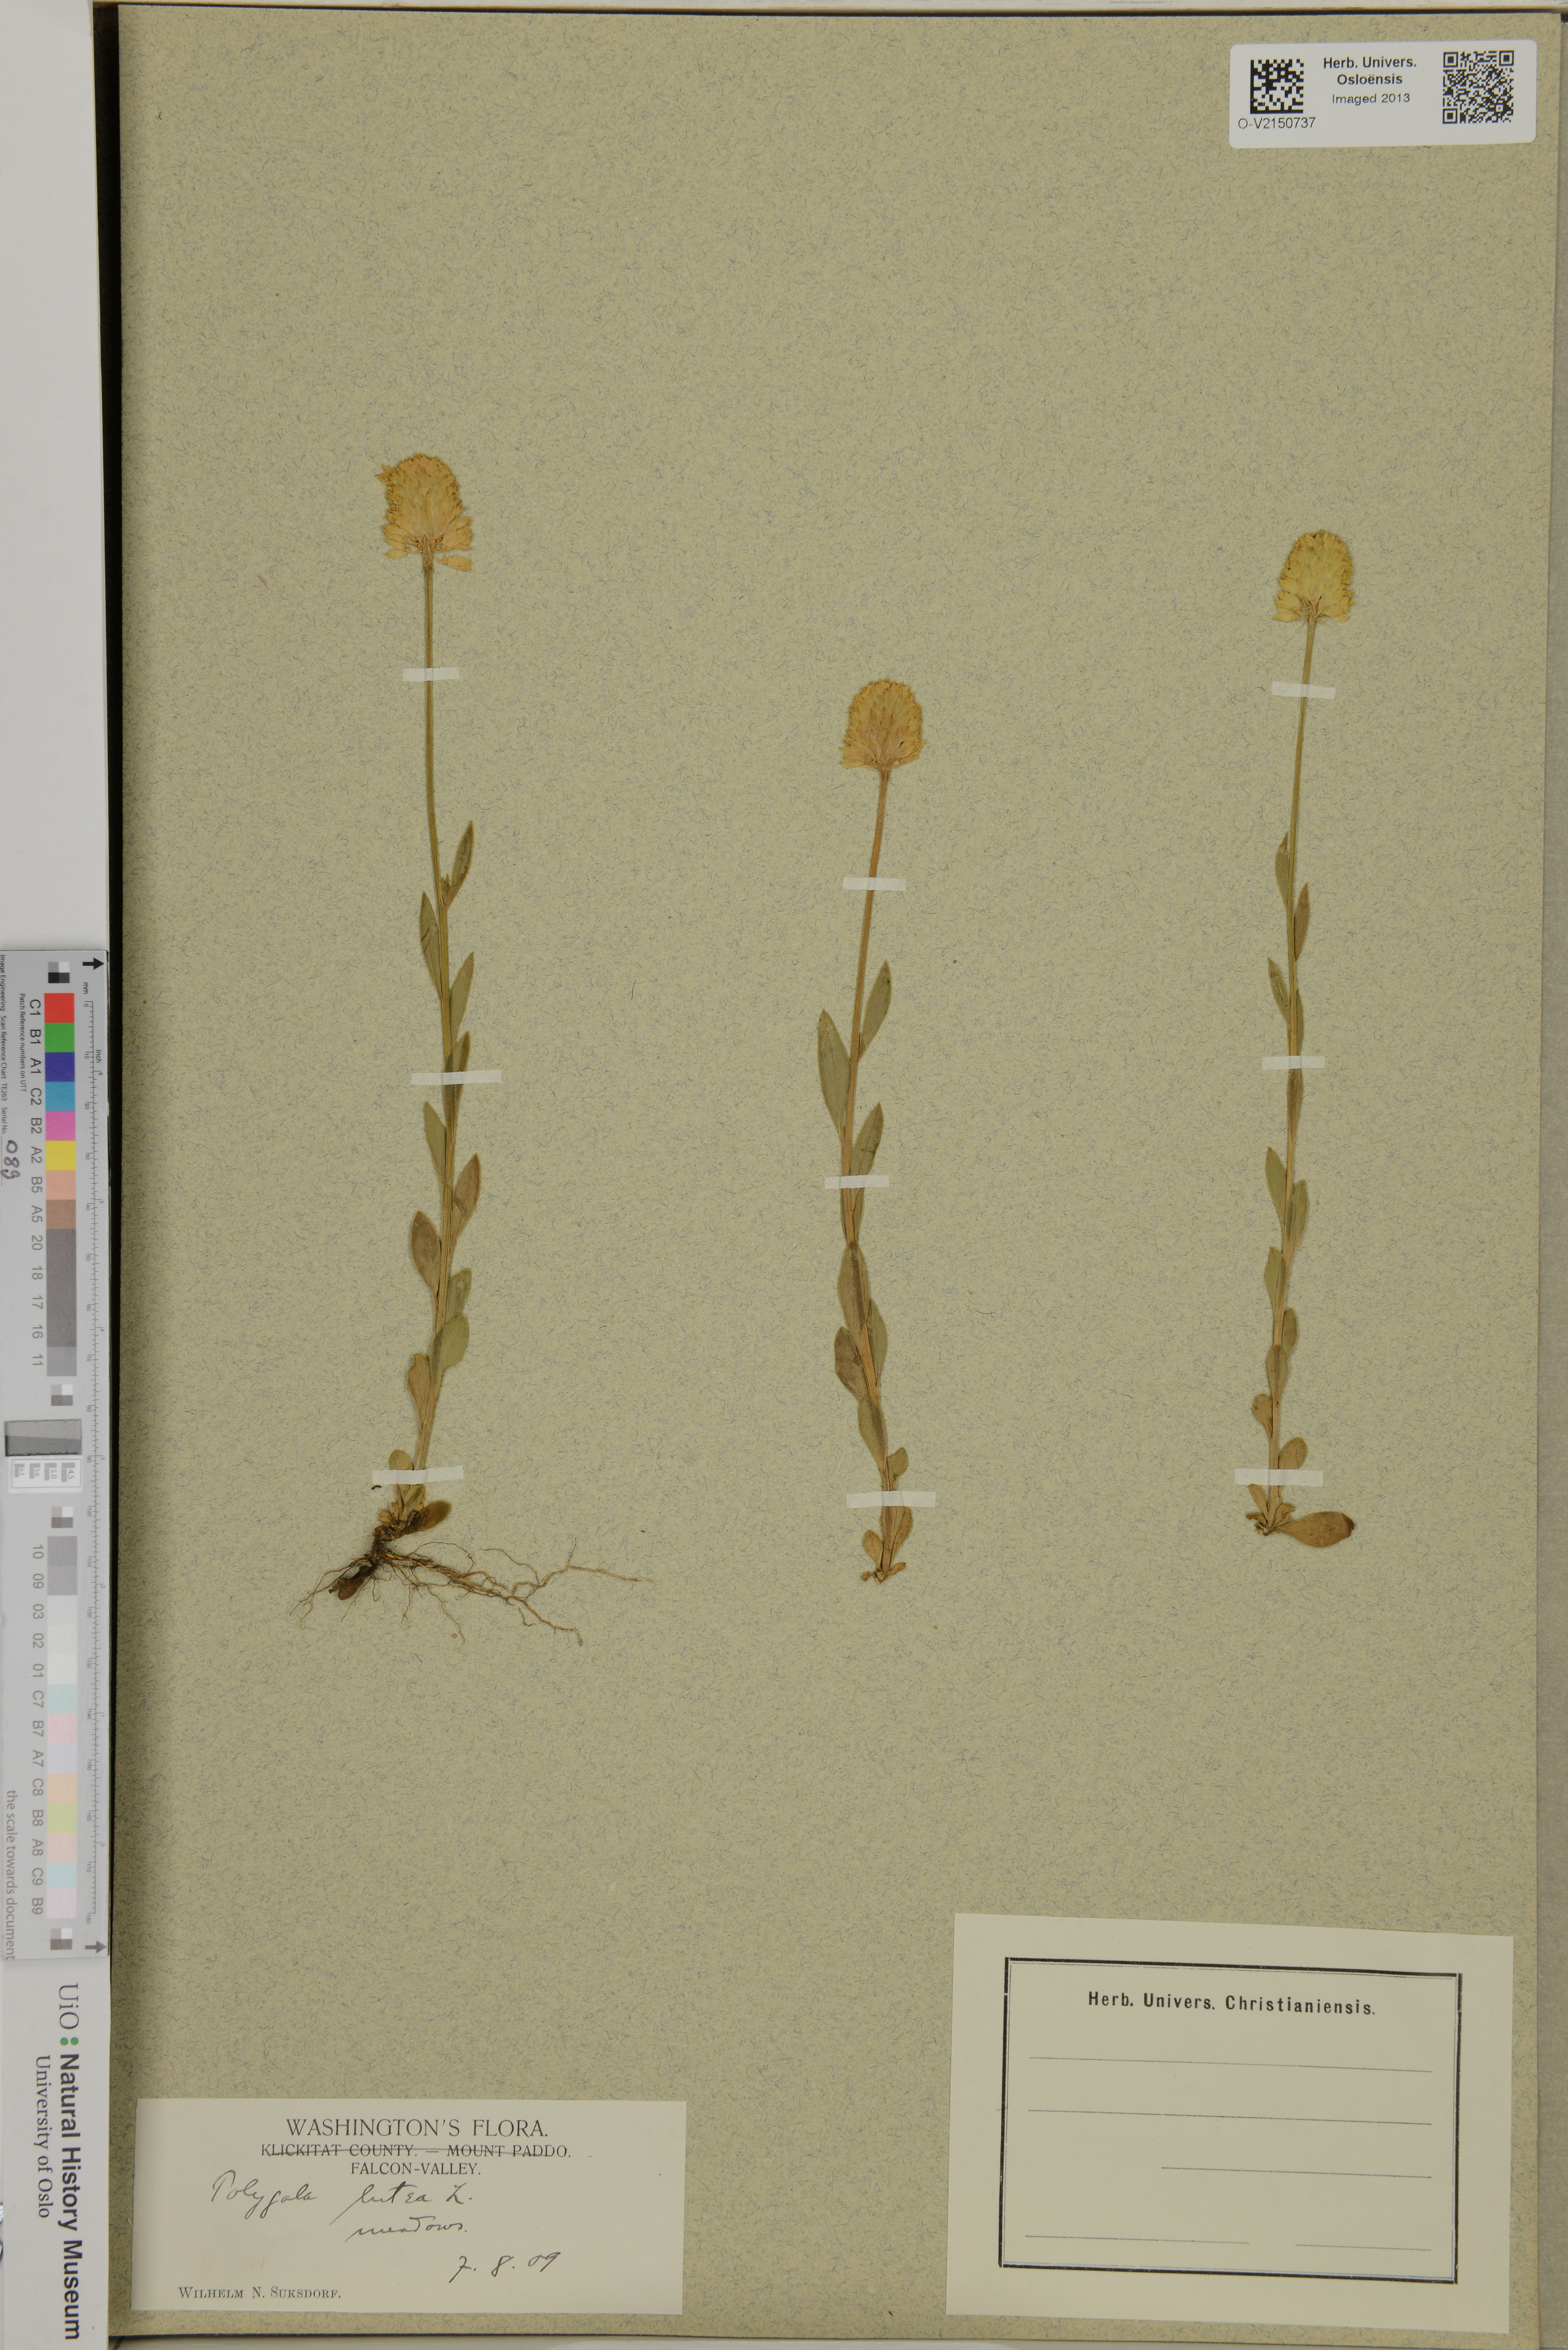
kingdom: Plantae
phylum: Tracheophyta
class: Magnoliopsida
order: Fabales
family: Polygalaceae
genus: Polygala
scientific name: Polygala lutea
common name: Orange milkwort
